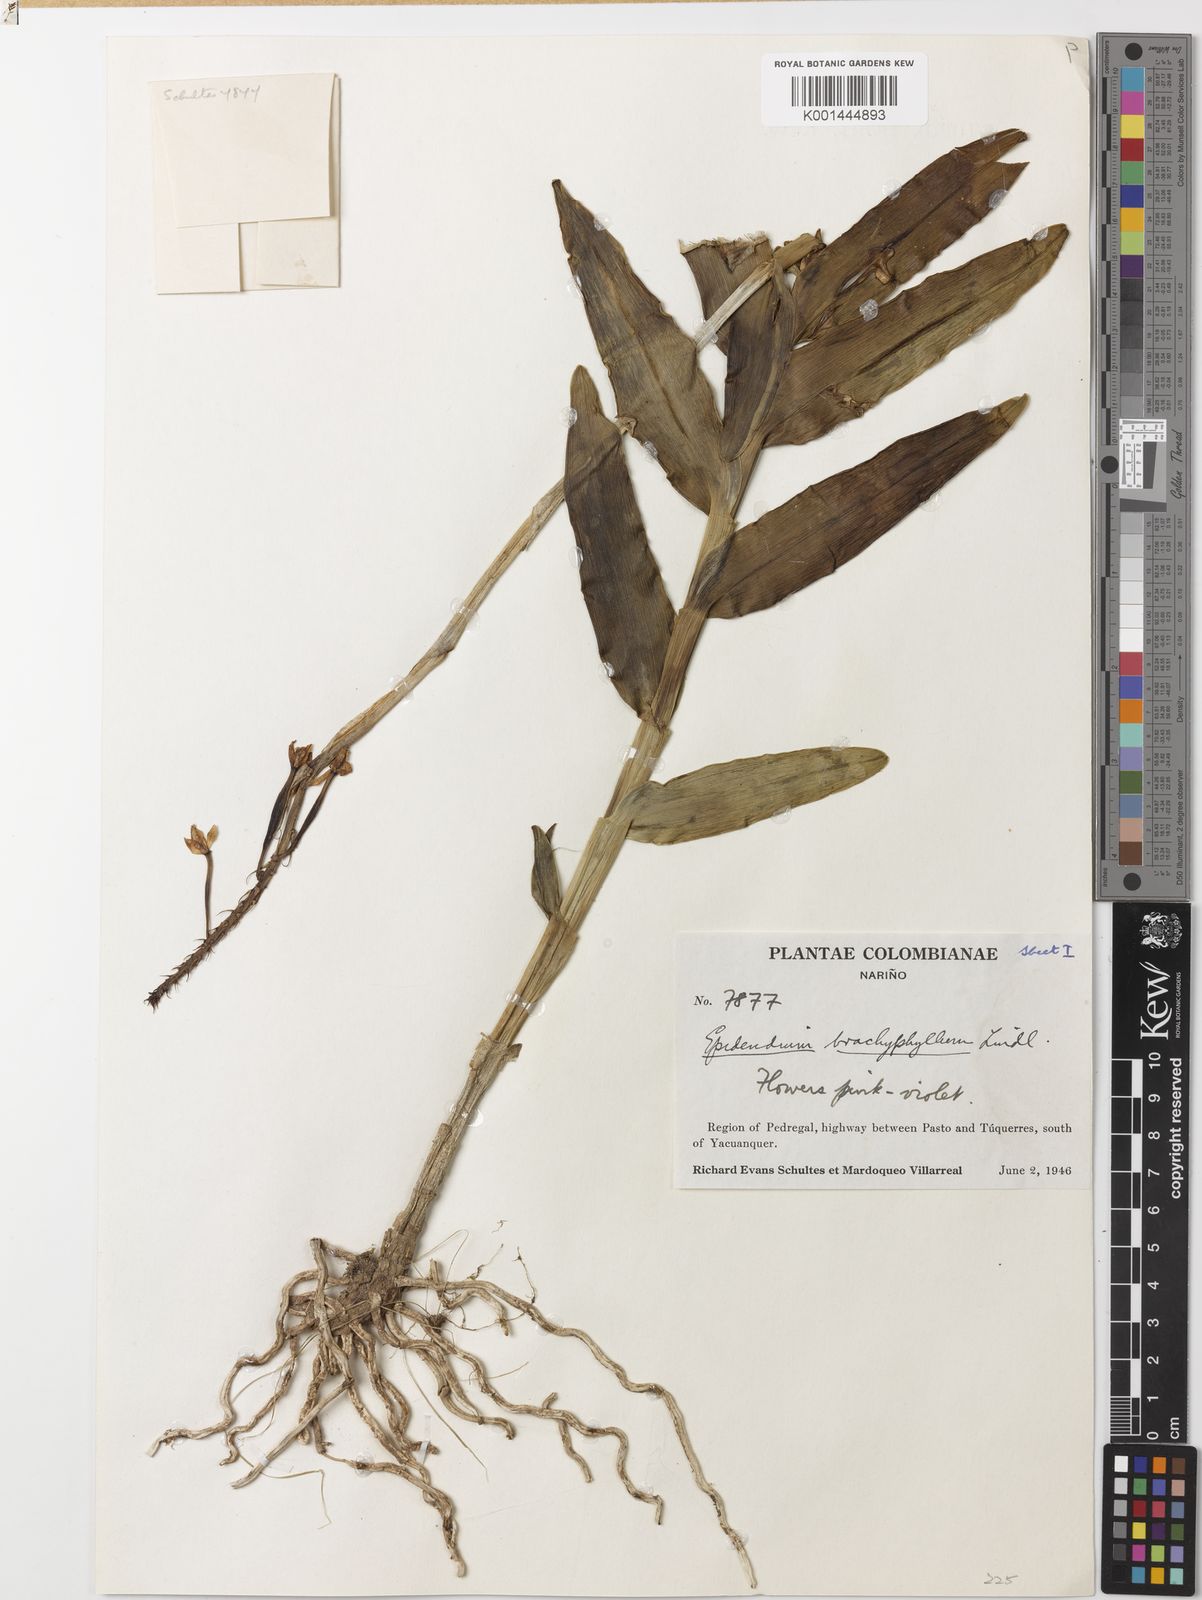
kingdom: Plantae
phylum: Tracheophyta
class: Liliopsida
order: Asparagales
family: Orchidaceae
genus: Epidendrum
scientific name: Epidendrum secundum
